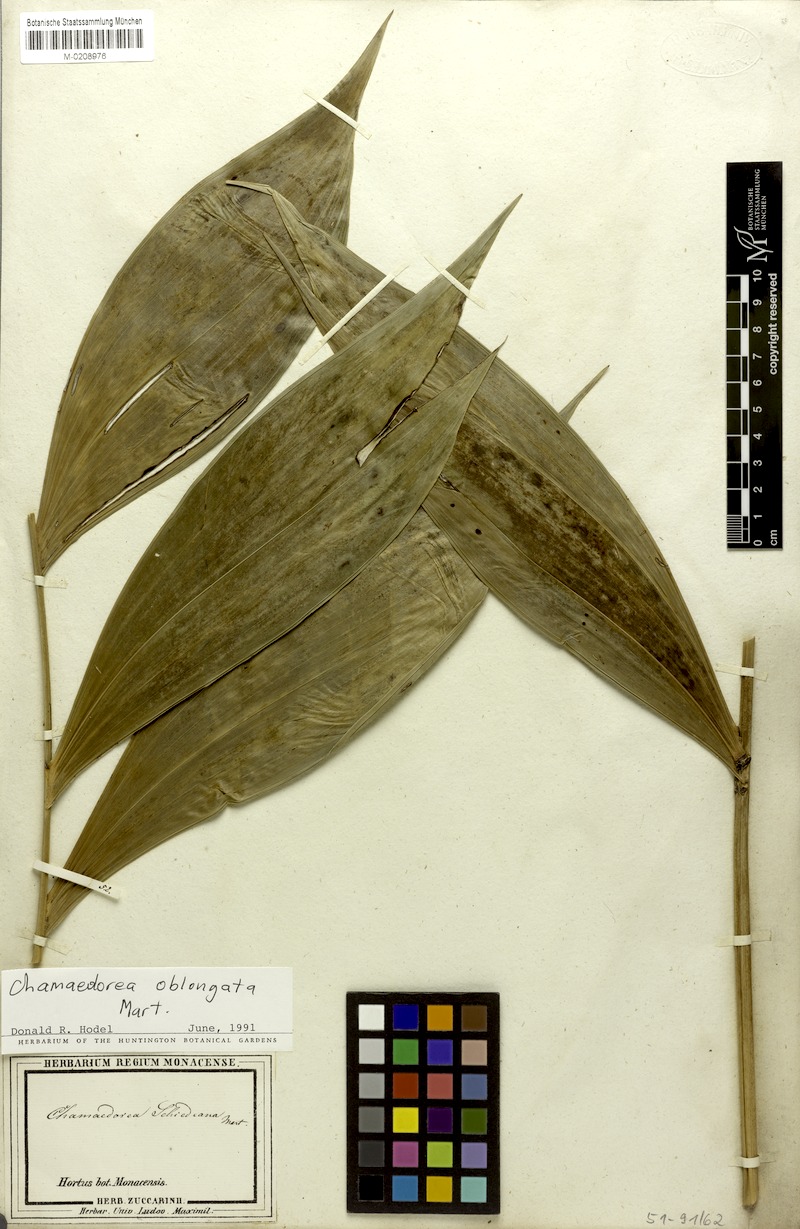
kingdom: Plantae
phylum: Tracheophyta
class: Liliopsida
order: Arecales
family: Arecaceae
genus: Chamaedorea
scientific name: Chamaedorea oblongata
